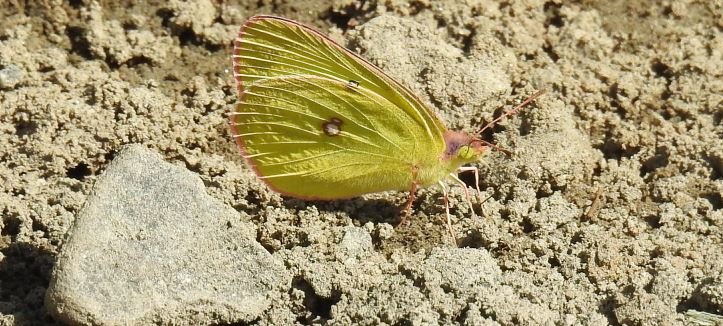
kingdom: Animalia
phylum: Arthropoda
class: Insecta
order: Lepidoptera
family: Pieridae
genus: Colias
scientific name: Colias interior
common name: Pink-edged Sulphur
